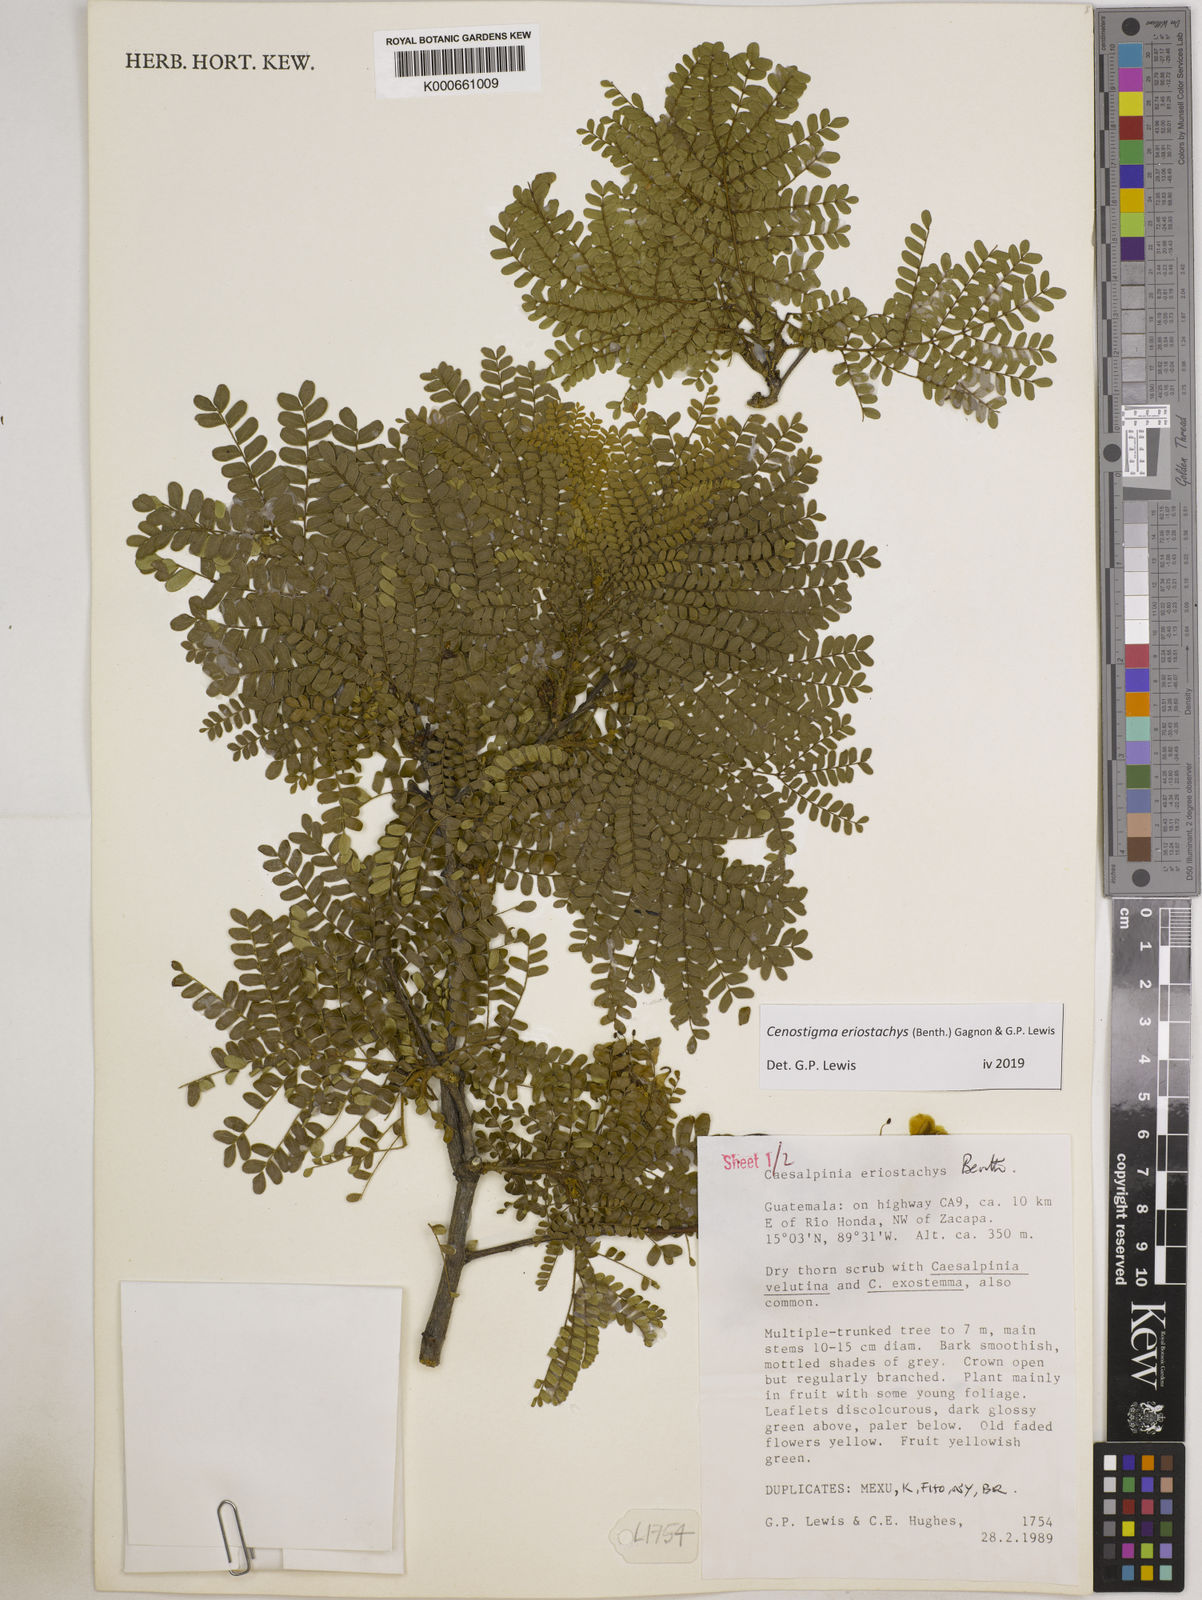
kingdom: Plantae
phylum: Tracheophyta
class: Magnoliopsida
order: Fabales
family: Fabaceae
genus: Cenostigma
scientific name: Cenostigma eriostachys
